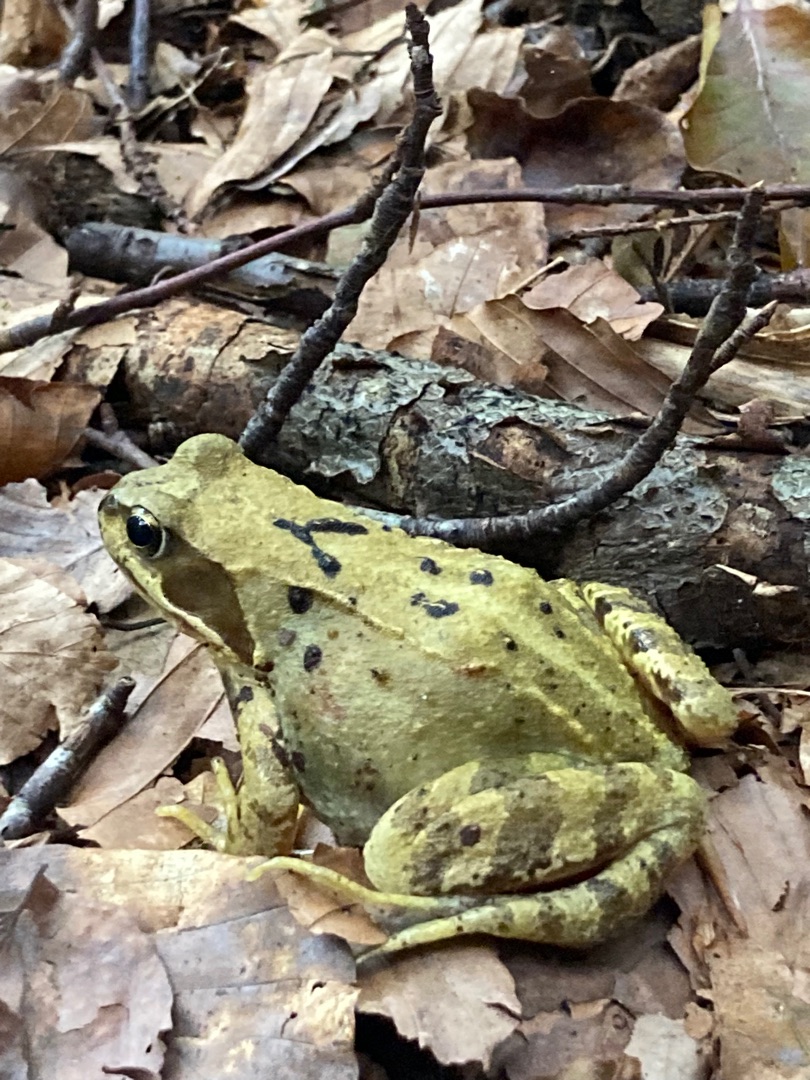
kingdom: Animalia
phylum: Chordata
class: Amphibia
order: Anura
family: Ranidae
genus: Rana
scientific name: Rana temporaria
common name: Butsnudet frø
